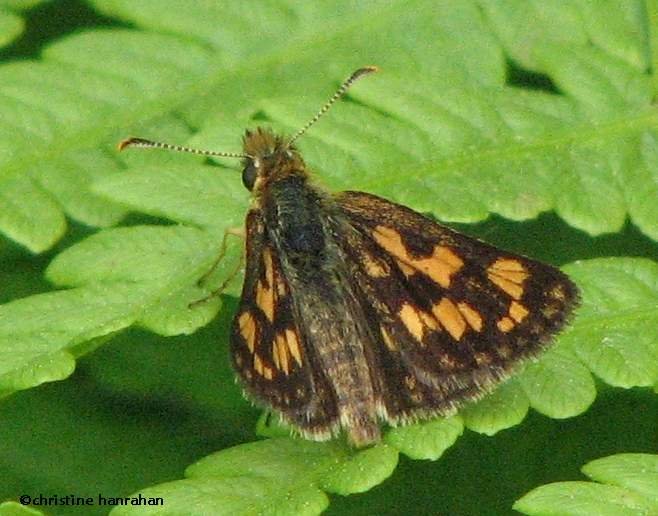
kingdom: Animalia
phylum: Arthropoda
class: Insecta
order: Lepidoptera
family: Hesperiidae
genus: Carterocephalus
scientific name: Carterocephalus palaemon
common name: Chequered Skipper
